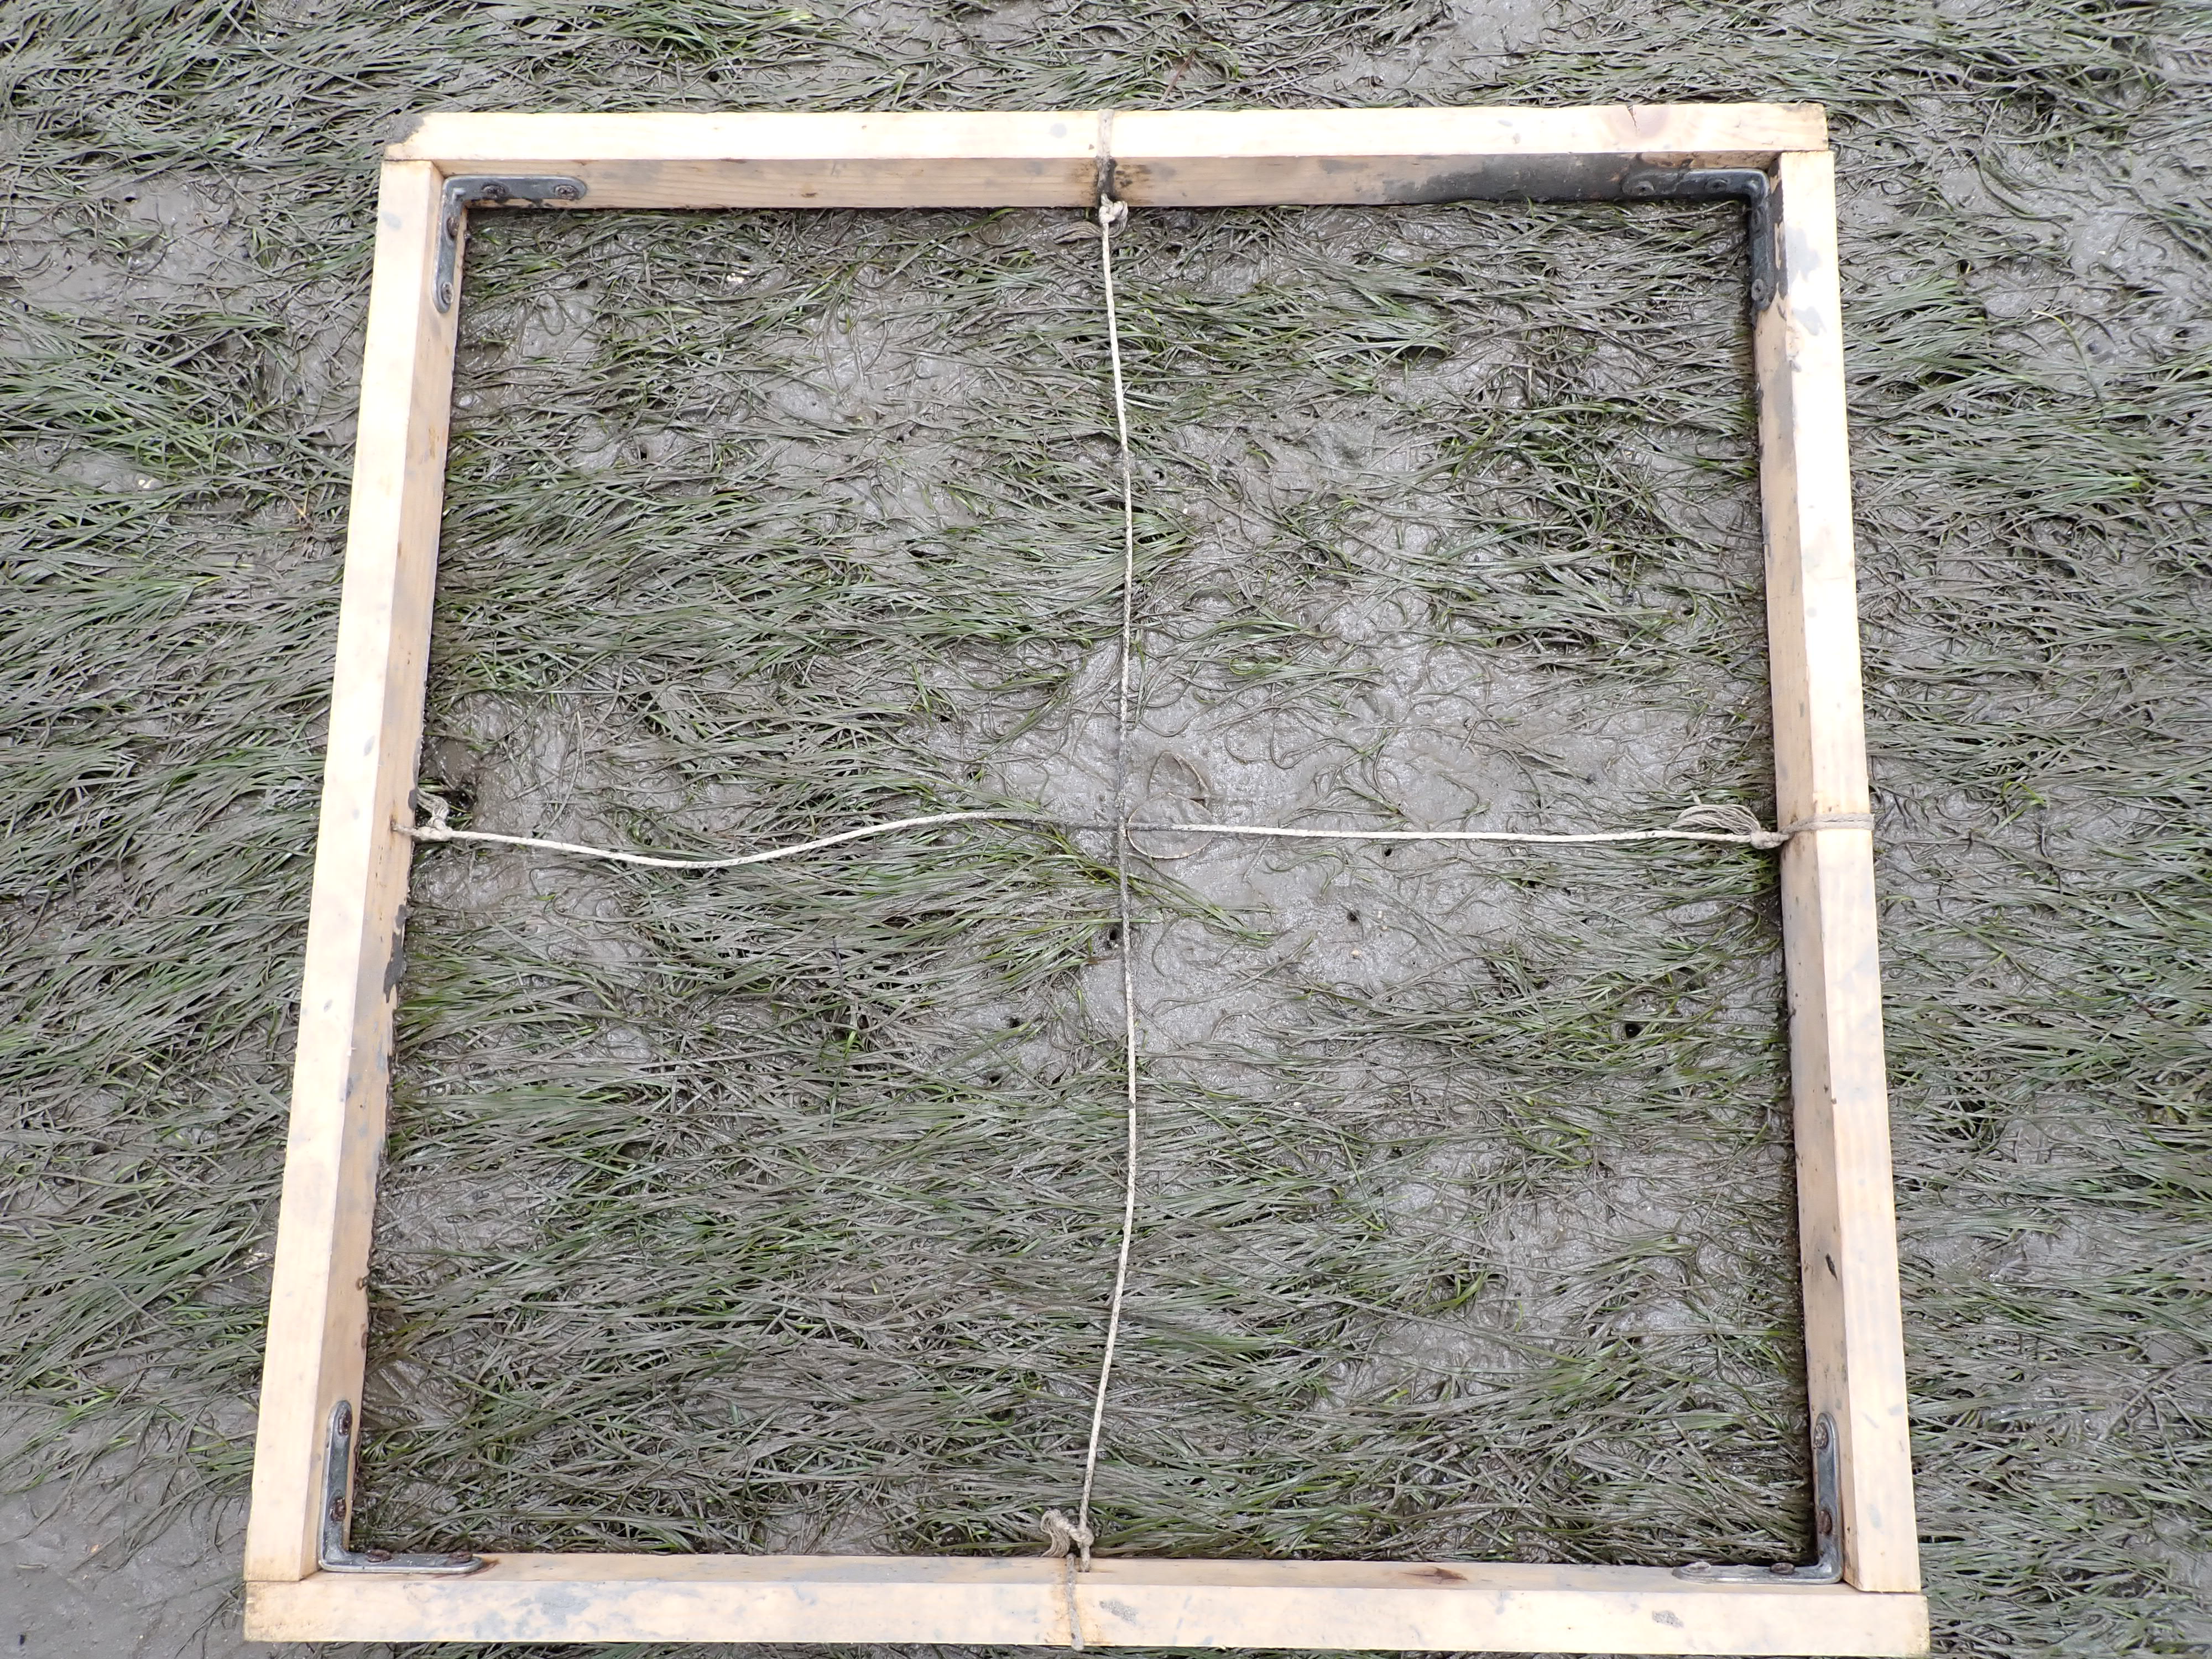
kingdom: Plantae
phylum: Tracheophyta
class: Liliopsida
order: Alismatales
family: Zosteraceae
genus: Zostera
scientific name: Zostera noltii
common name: Dwarf eelgrass
